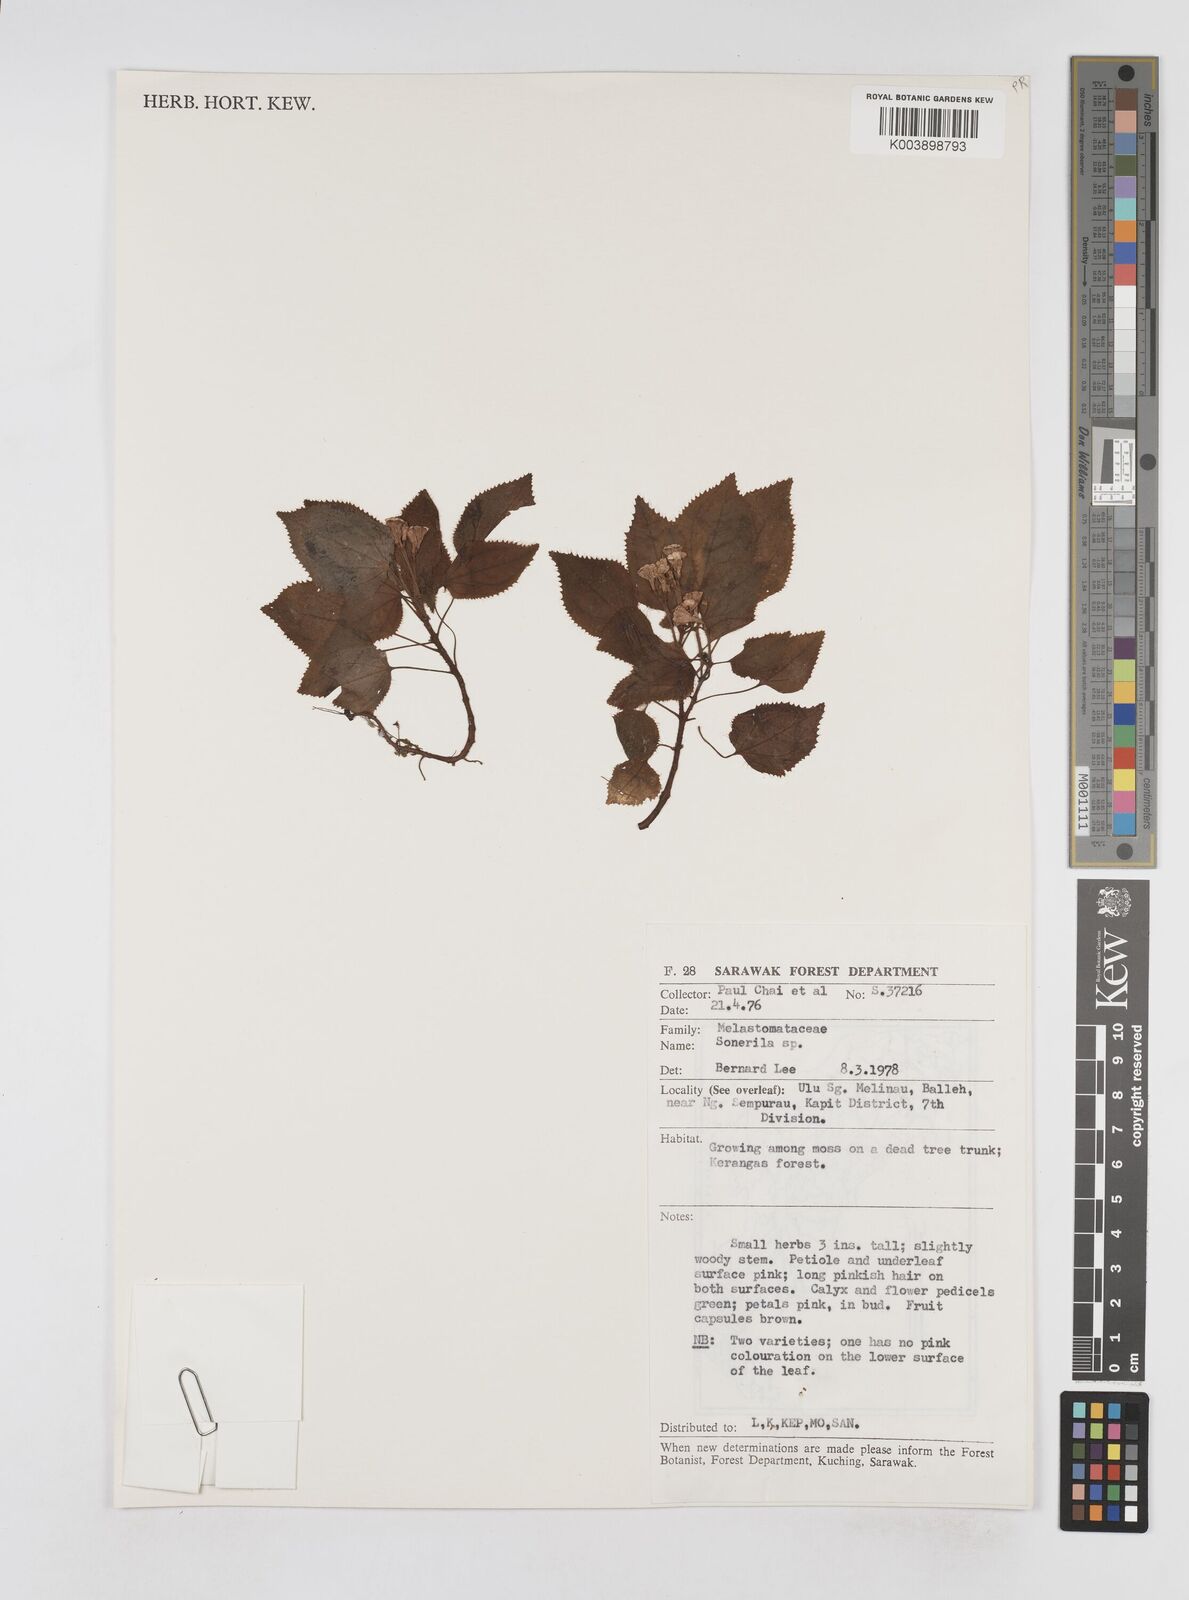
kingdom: Plantae
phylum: Tracheophyta
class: Magnoliopsida
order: Myrtales
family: Melastomataceae
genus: Sonerila
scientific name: Sonerila
